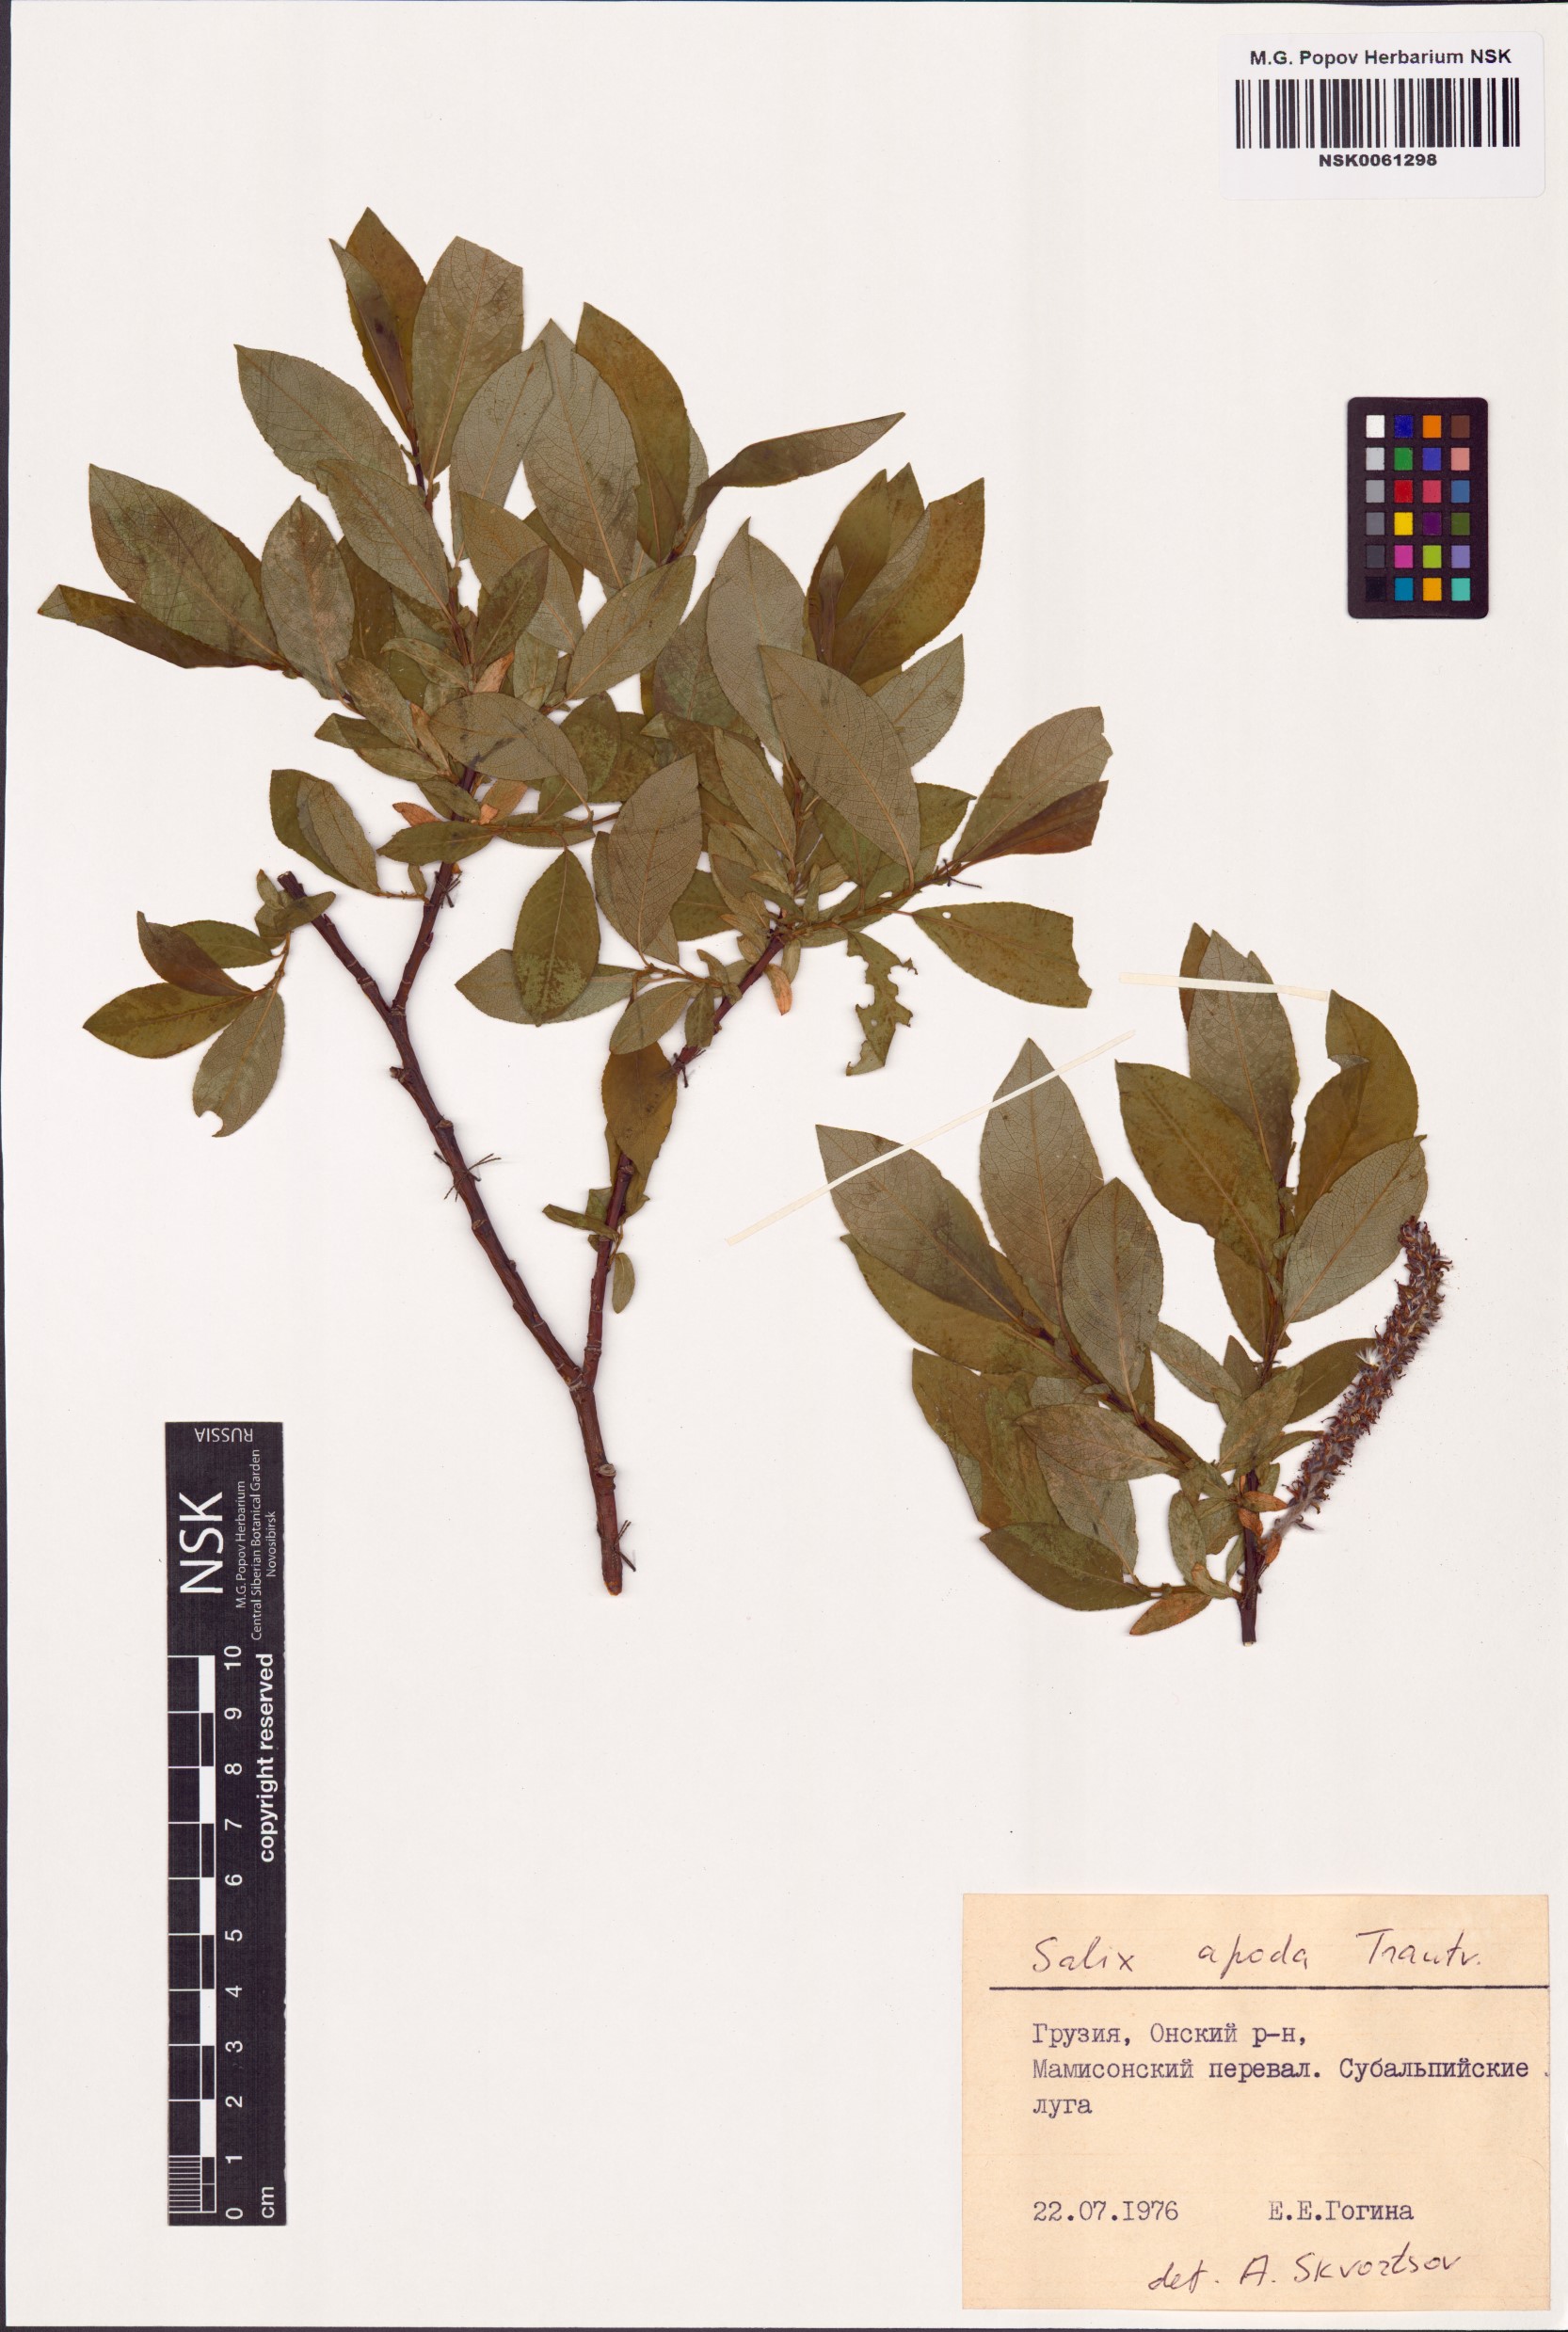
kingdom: Plantae
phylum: Tracheophyta
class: Magnoliopsida
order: Malpighiales
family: Salicaceae
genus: Salix
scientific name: Salix apoda
